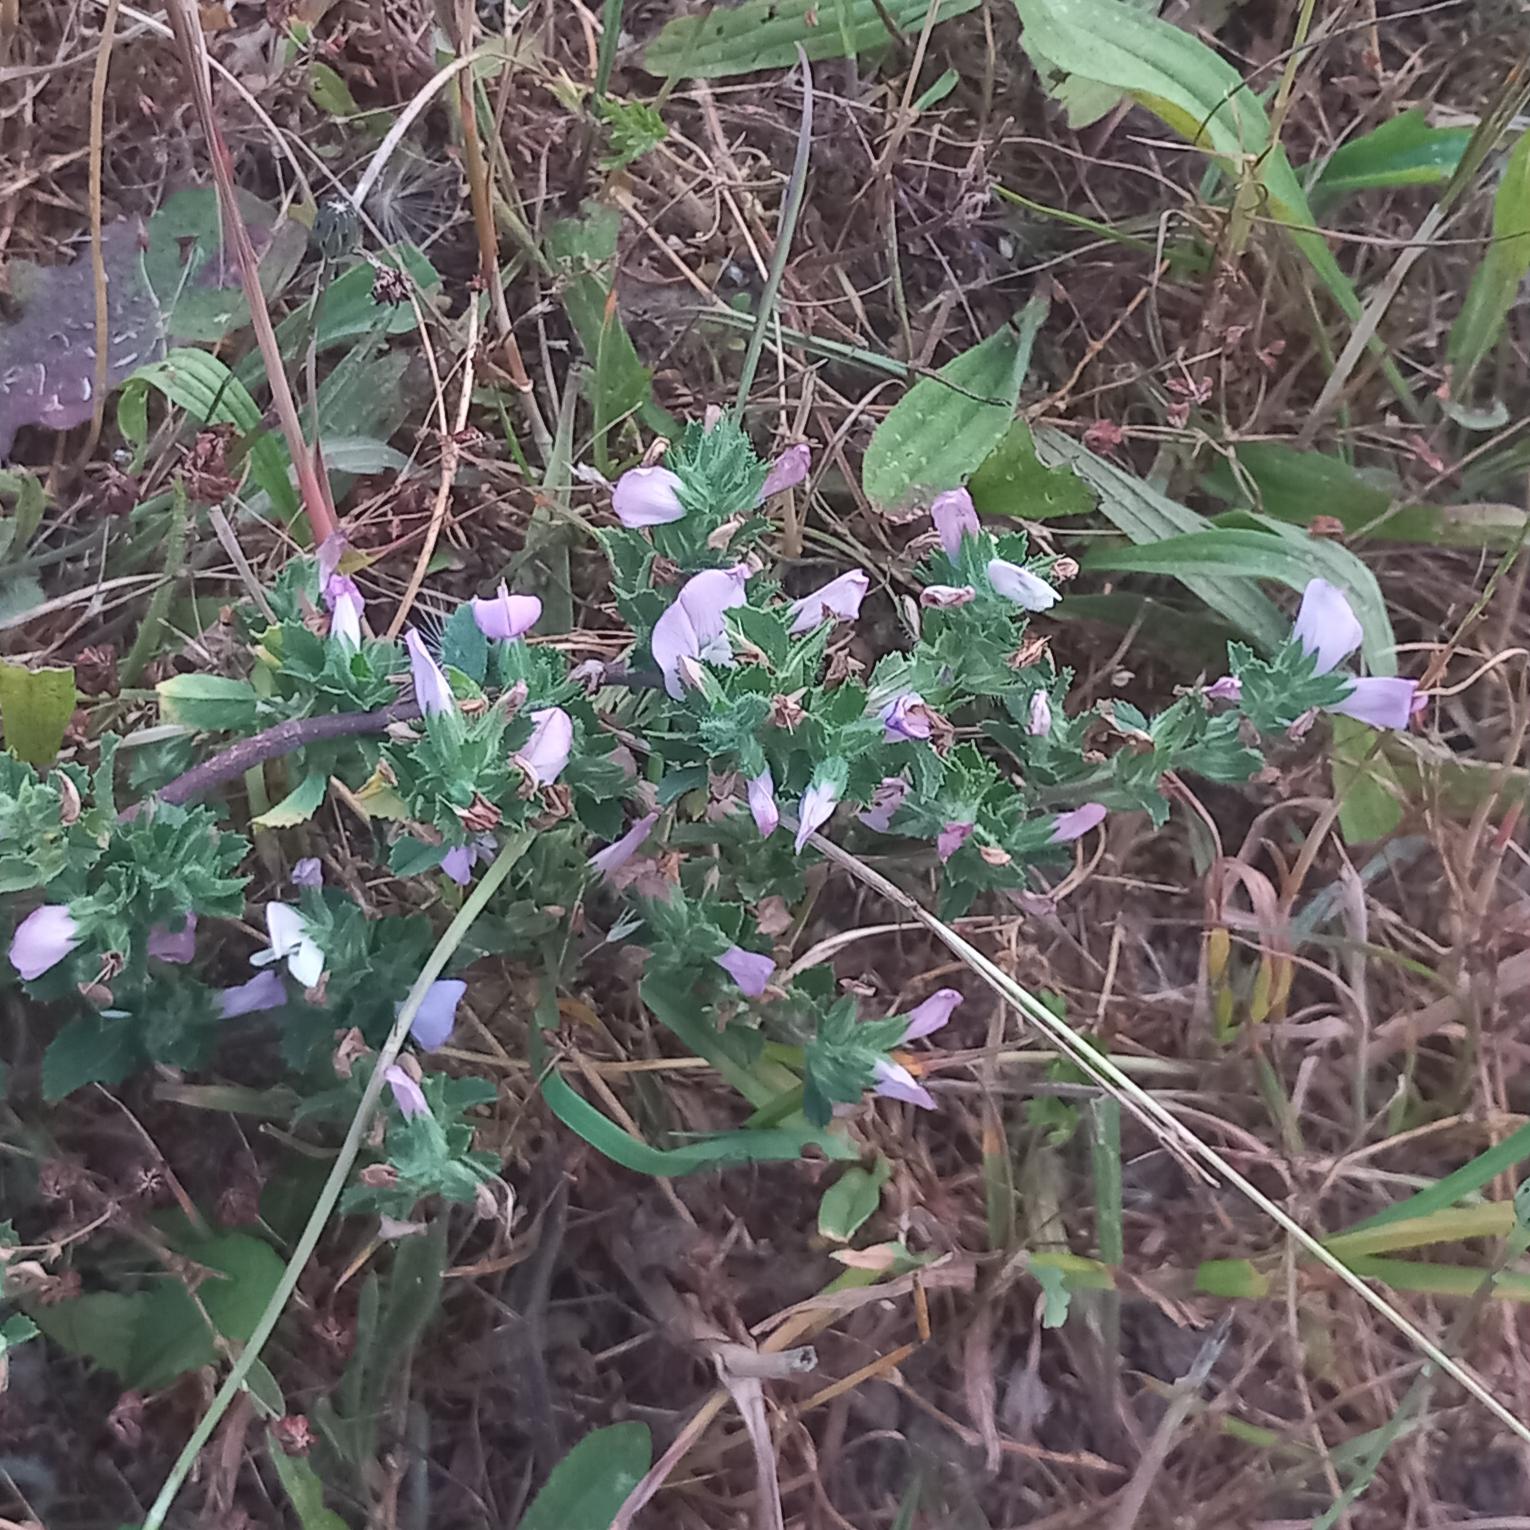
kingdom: Plantae
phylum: Tracheophyta
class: Magnoliopsida
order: Fabales
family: Fabaceae
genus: Ononis
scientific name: Ononis spinosa
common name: Mark-krageklo
